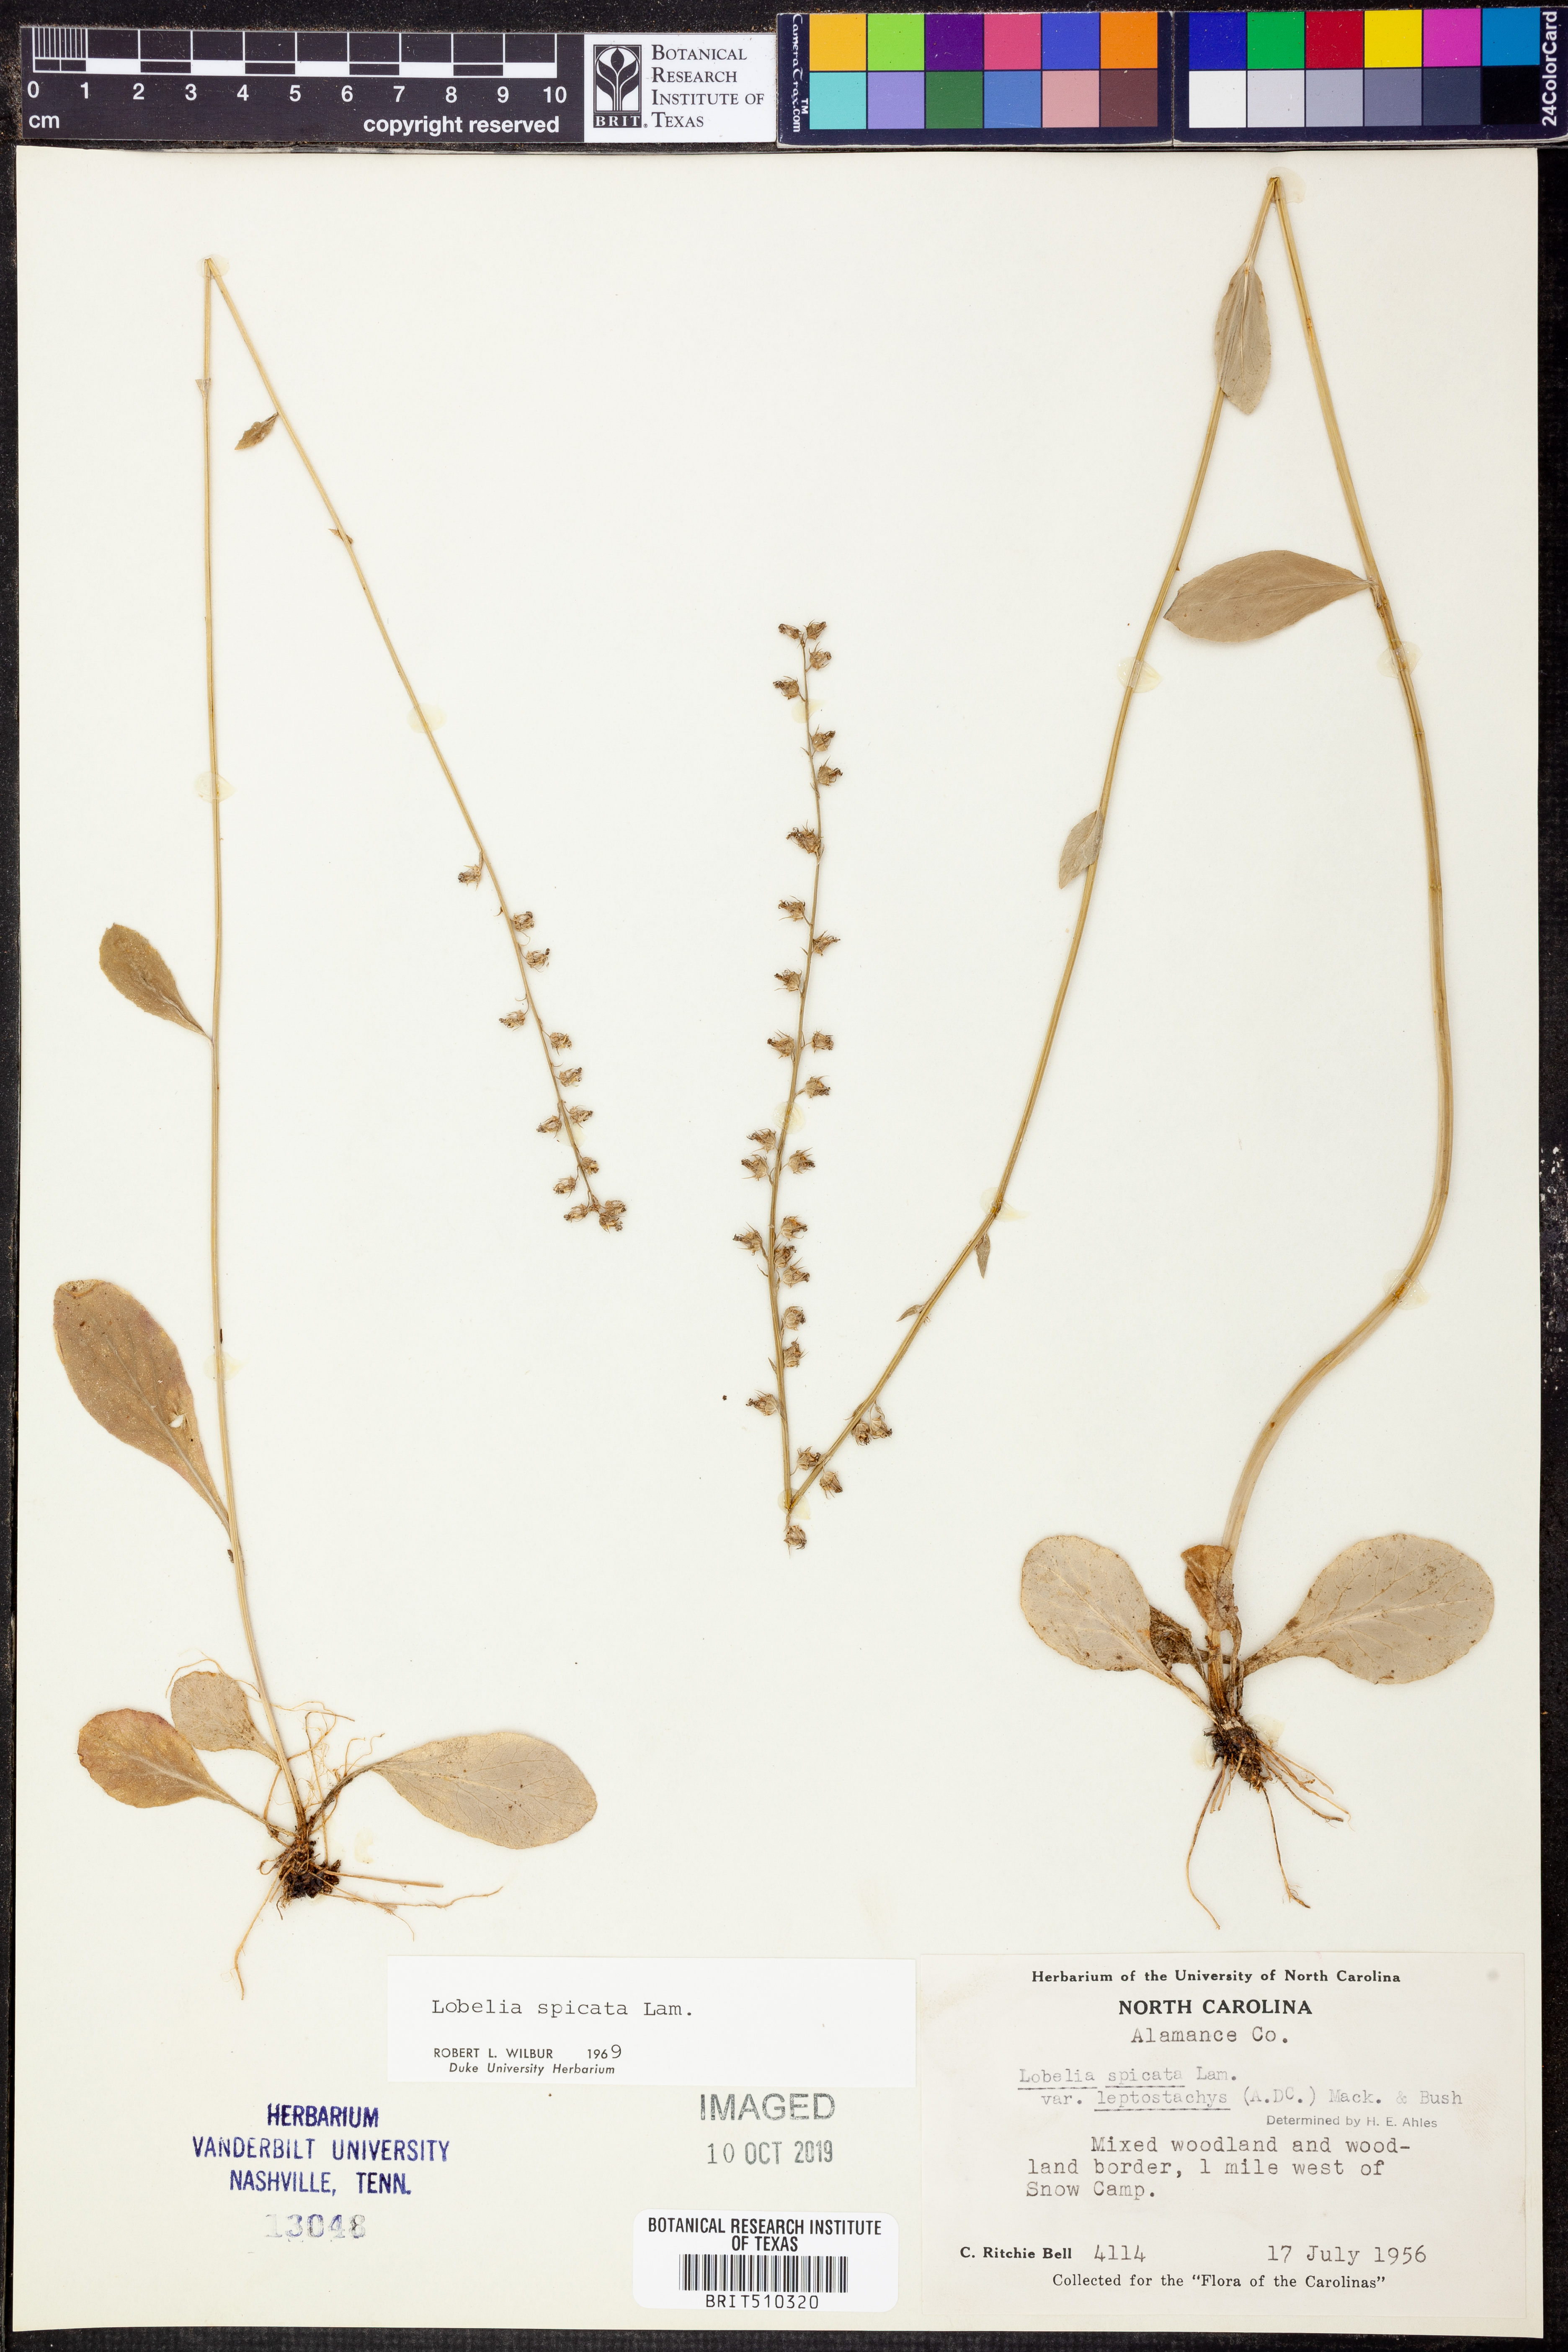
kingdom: Plantae
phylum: Tracheophyta
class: Magnoliopsida
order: Asterales
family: Campanulaceae
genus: Lobelia
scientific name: Lobelia spicata
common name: Pale-spike lobelia
